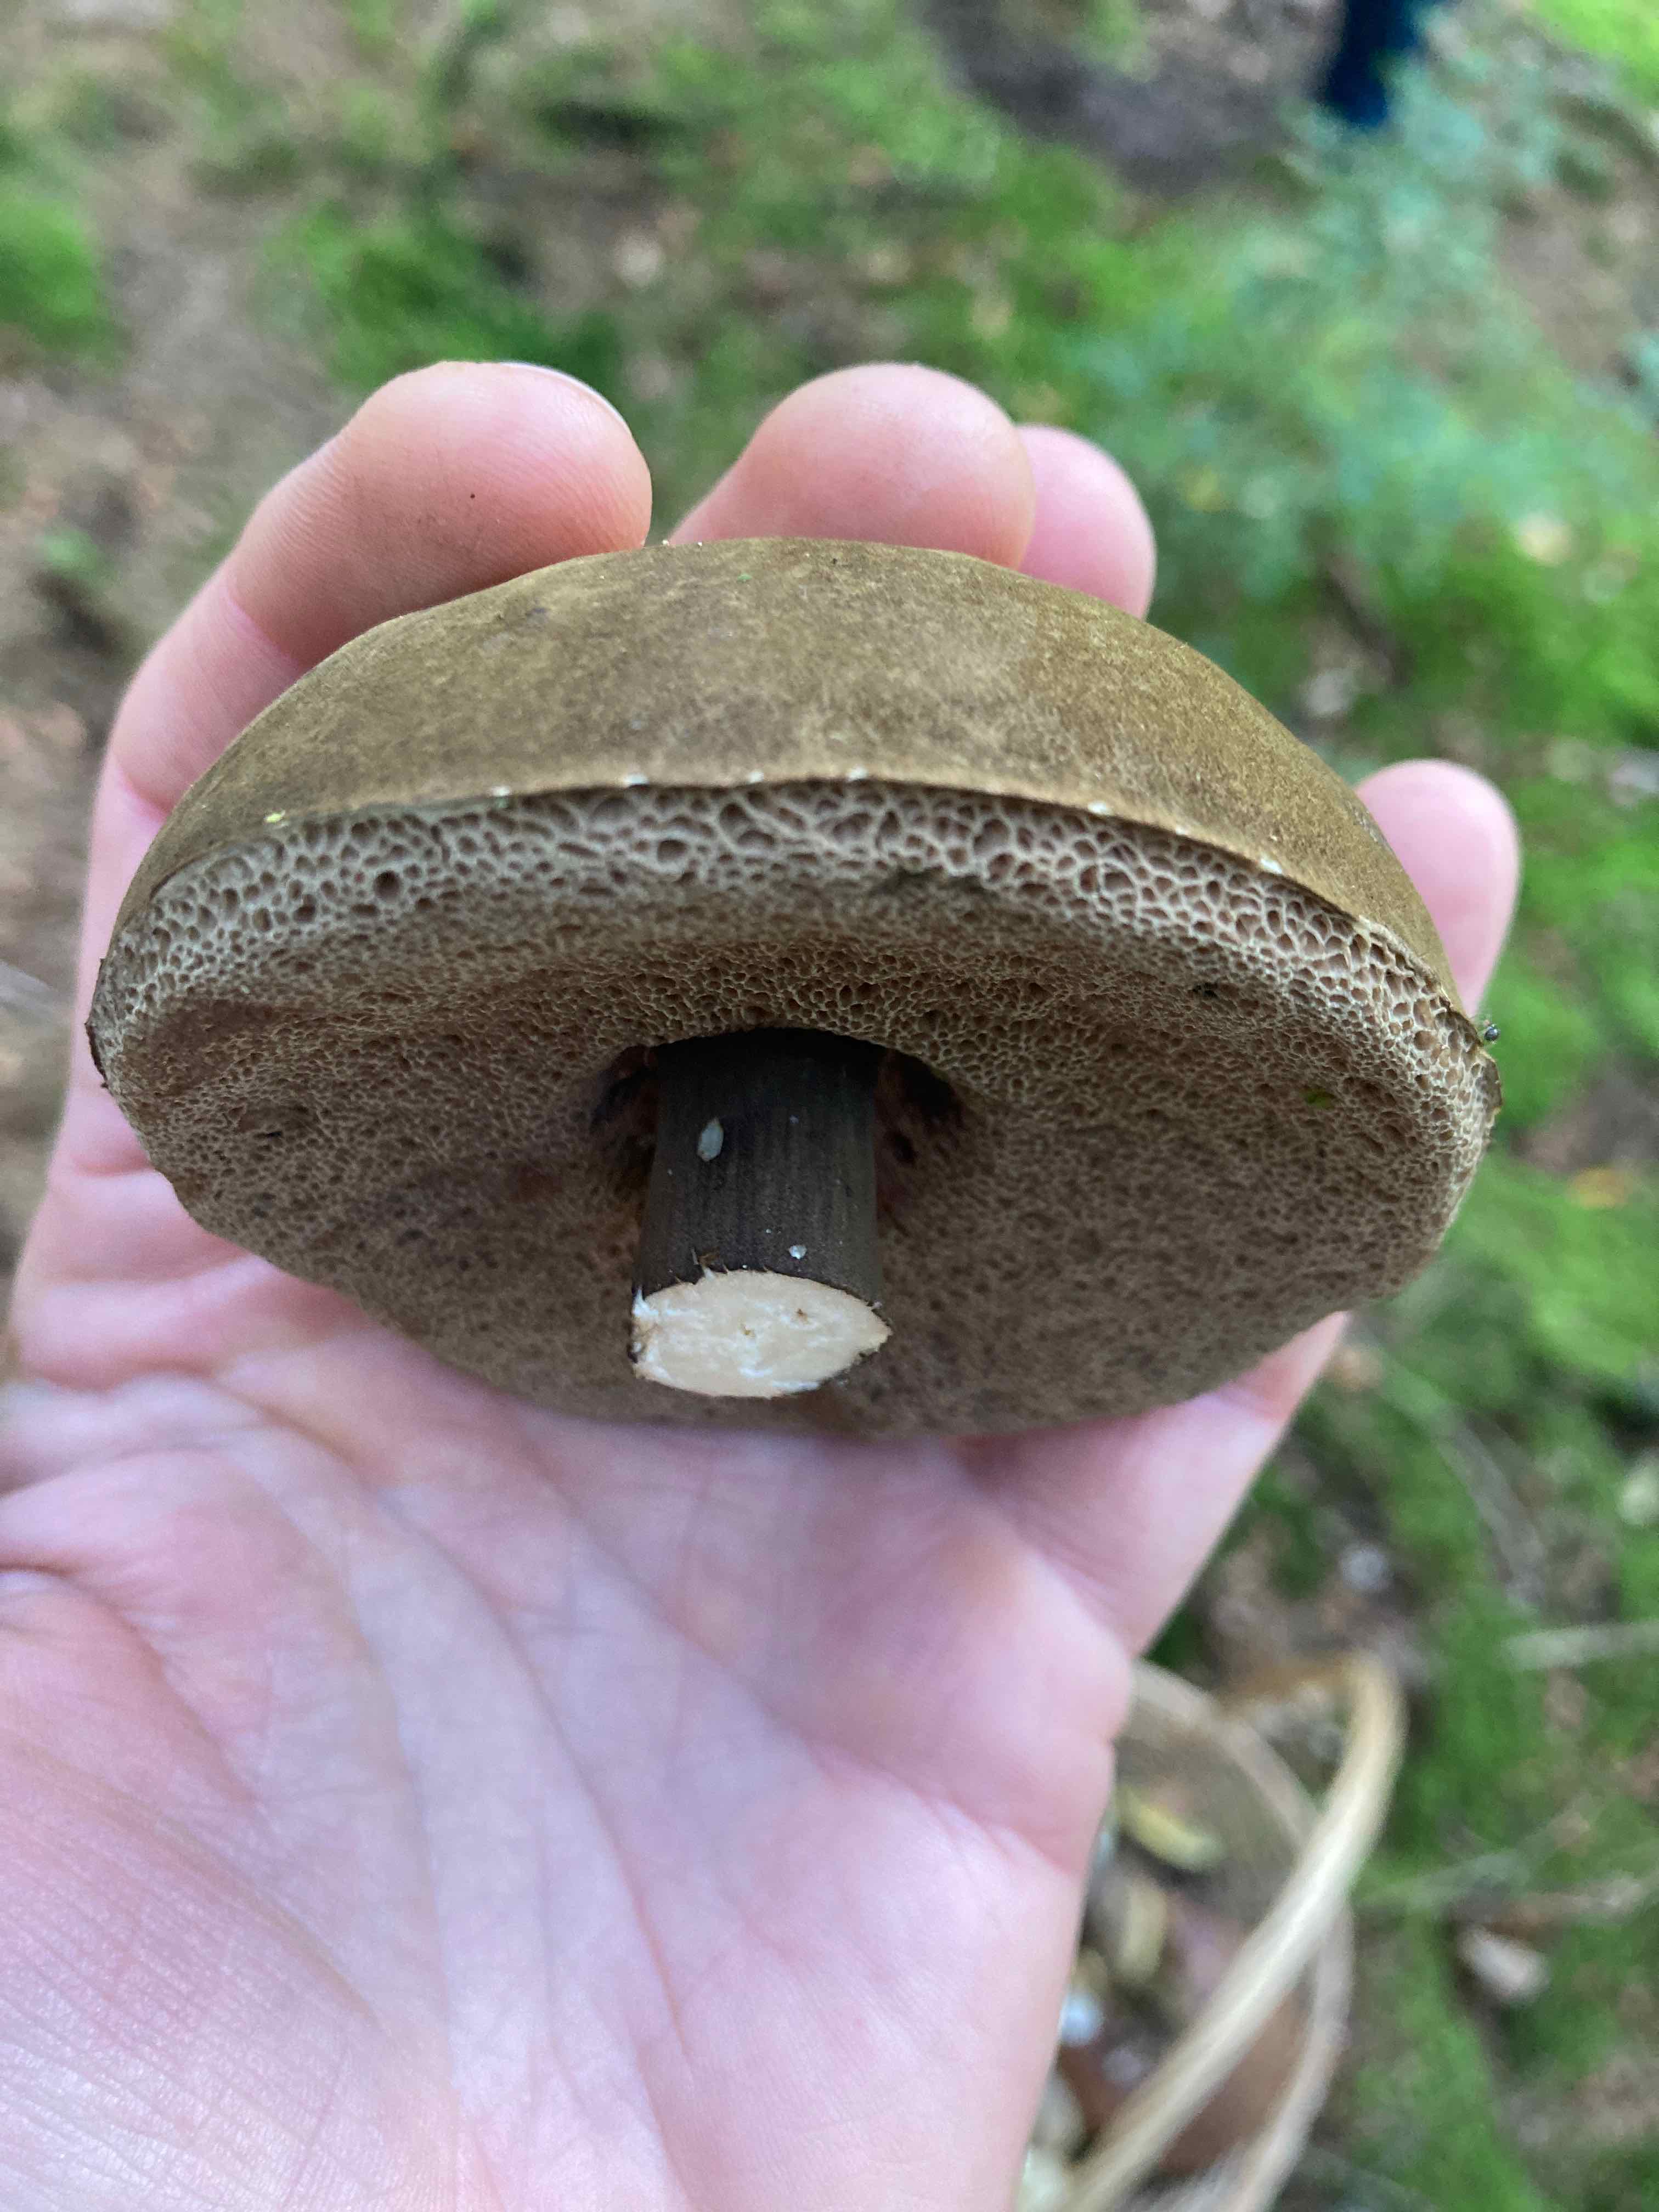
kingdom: Fungi
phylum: Basidiomycota
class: Agaricomycetes
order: Boletales
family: Boletaceae
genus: Porphyrellus
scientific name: Porphyrellus porphyrosporus
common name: sodrørhat
